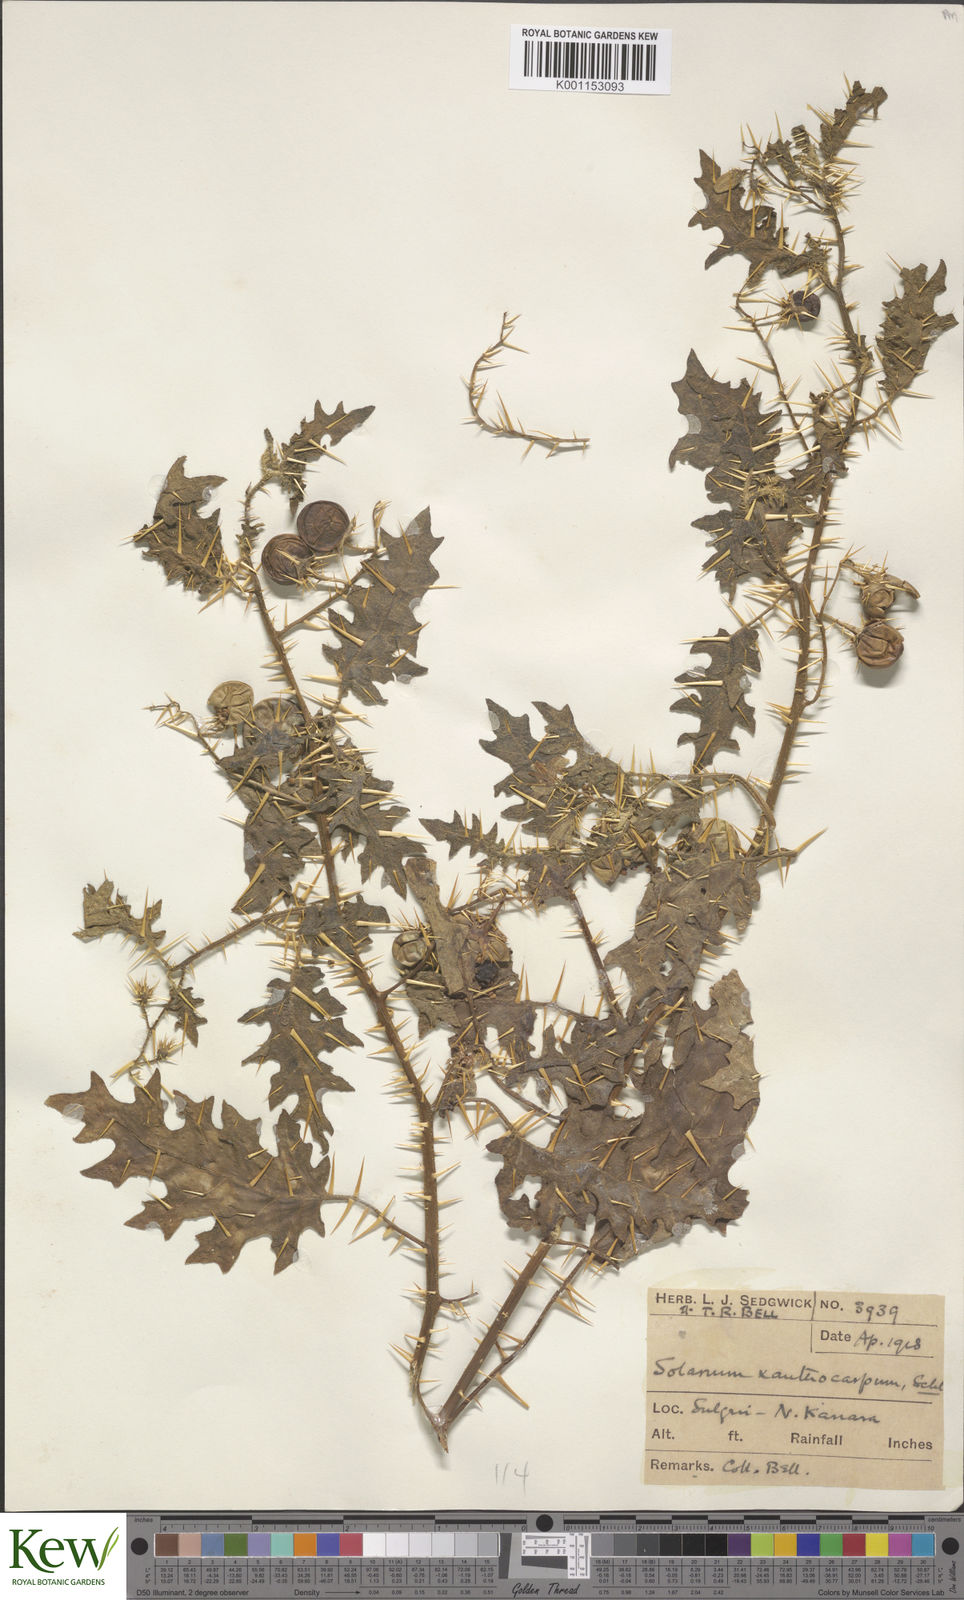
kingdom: Plantae
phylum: Tracheophyta
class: Magnoliopsida
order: Solanales
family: Solanaceae
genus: Solanum
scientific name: Solanum virginianum
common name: Surattense nightshade
